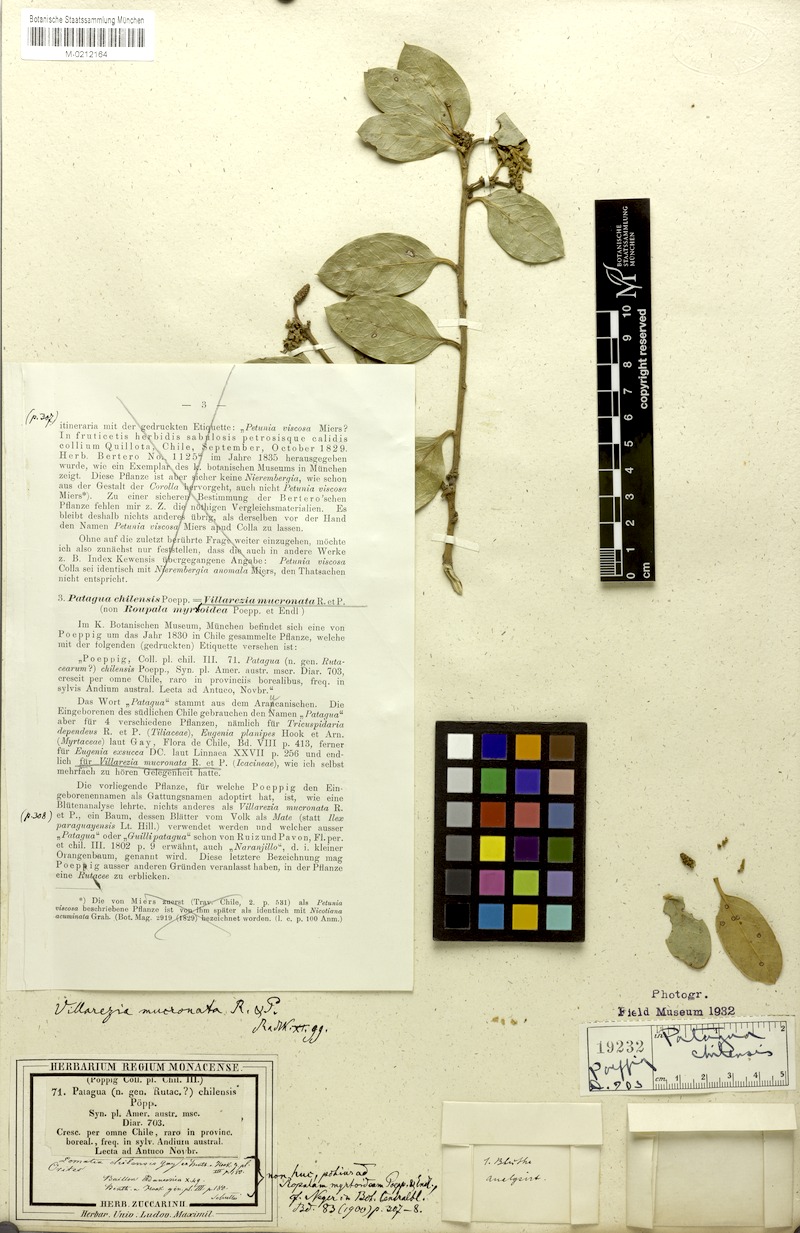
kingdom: Plantae
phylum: Tracheophyta
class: Magnoliopsida
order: Cardiopteridales
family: Cardiopteridaceae
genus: Citronella
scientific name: Citronella mucronata
